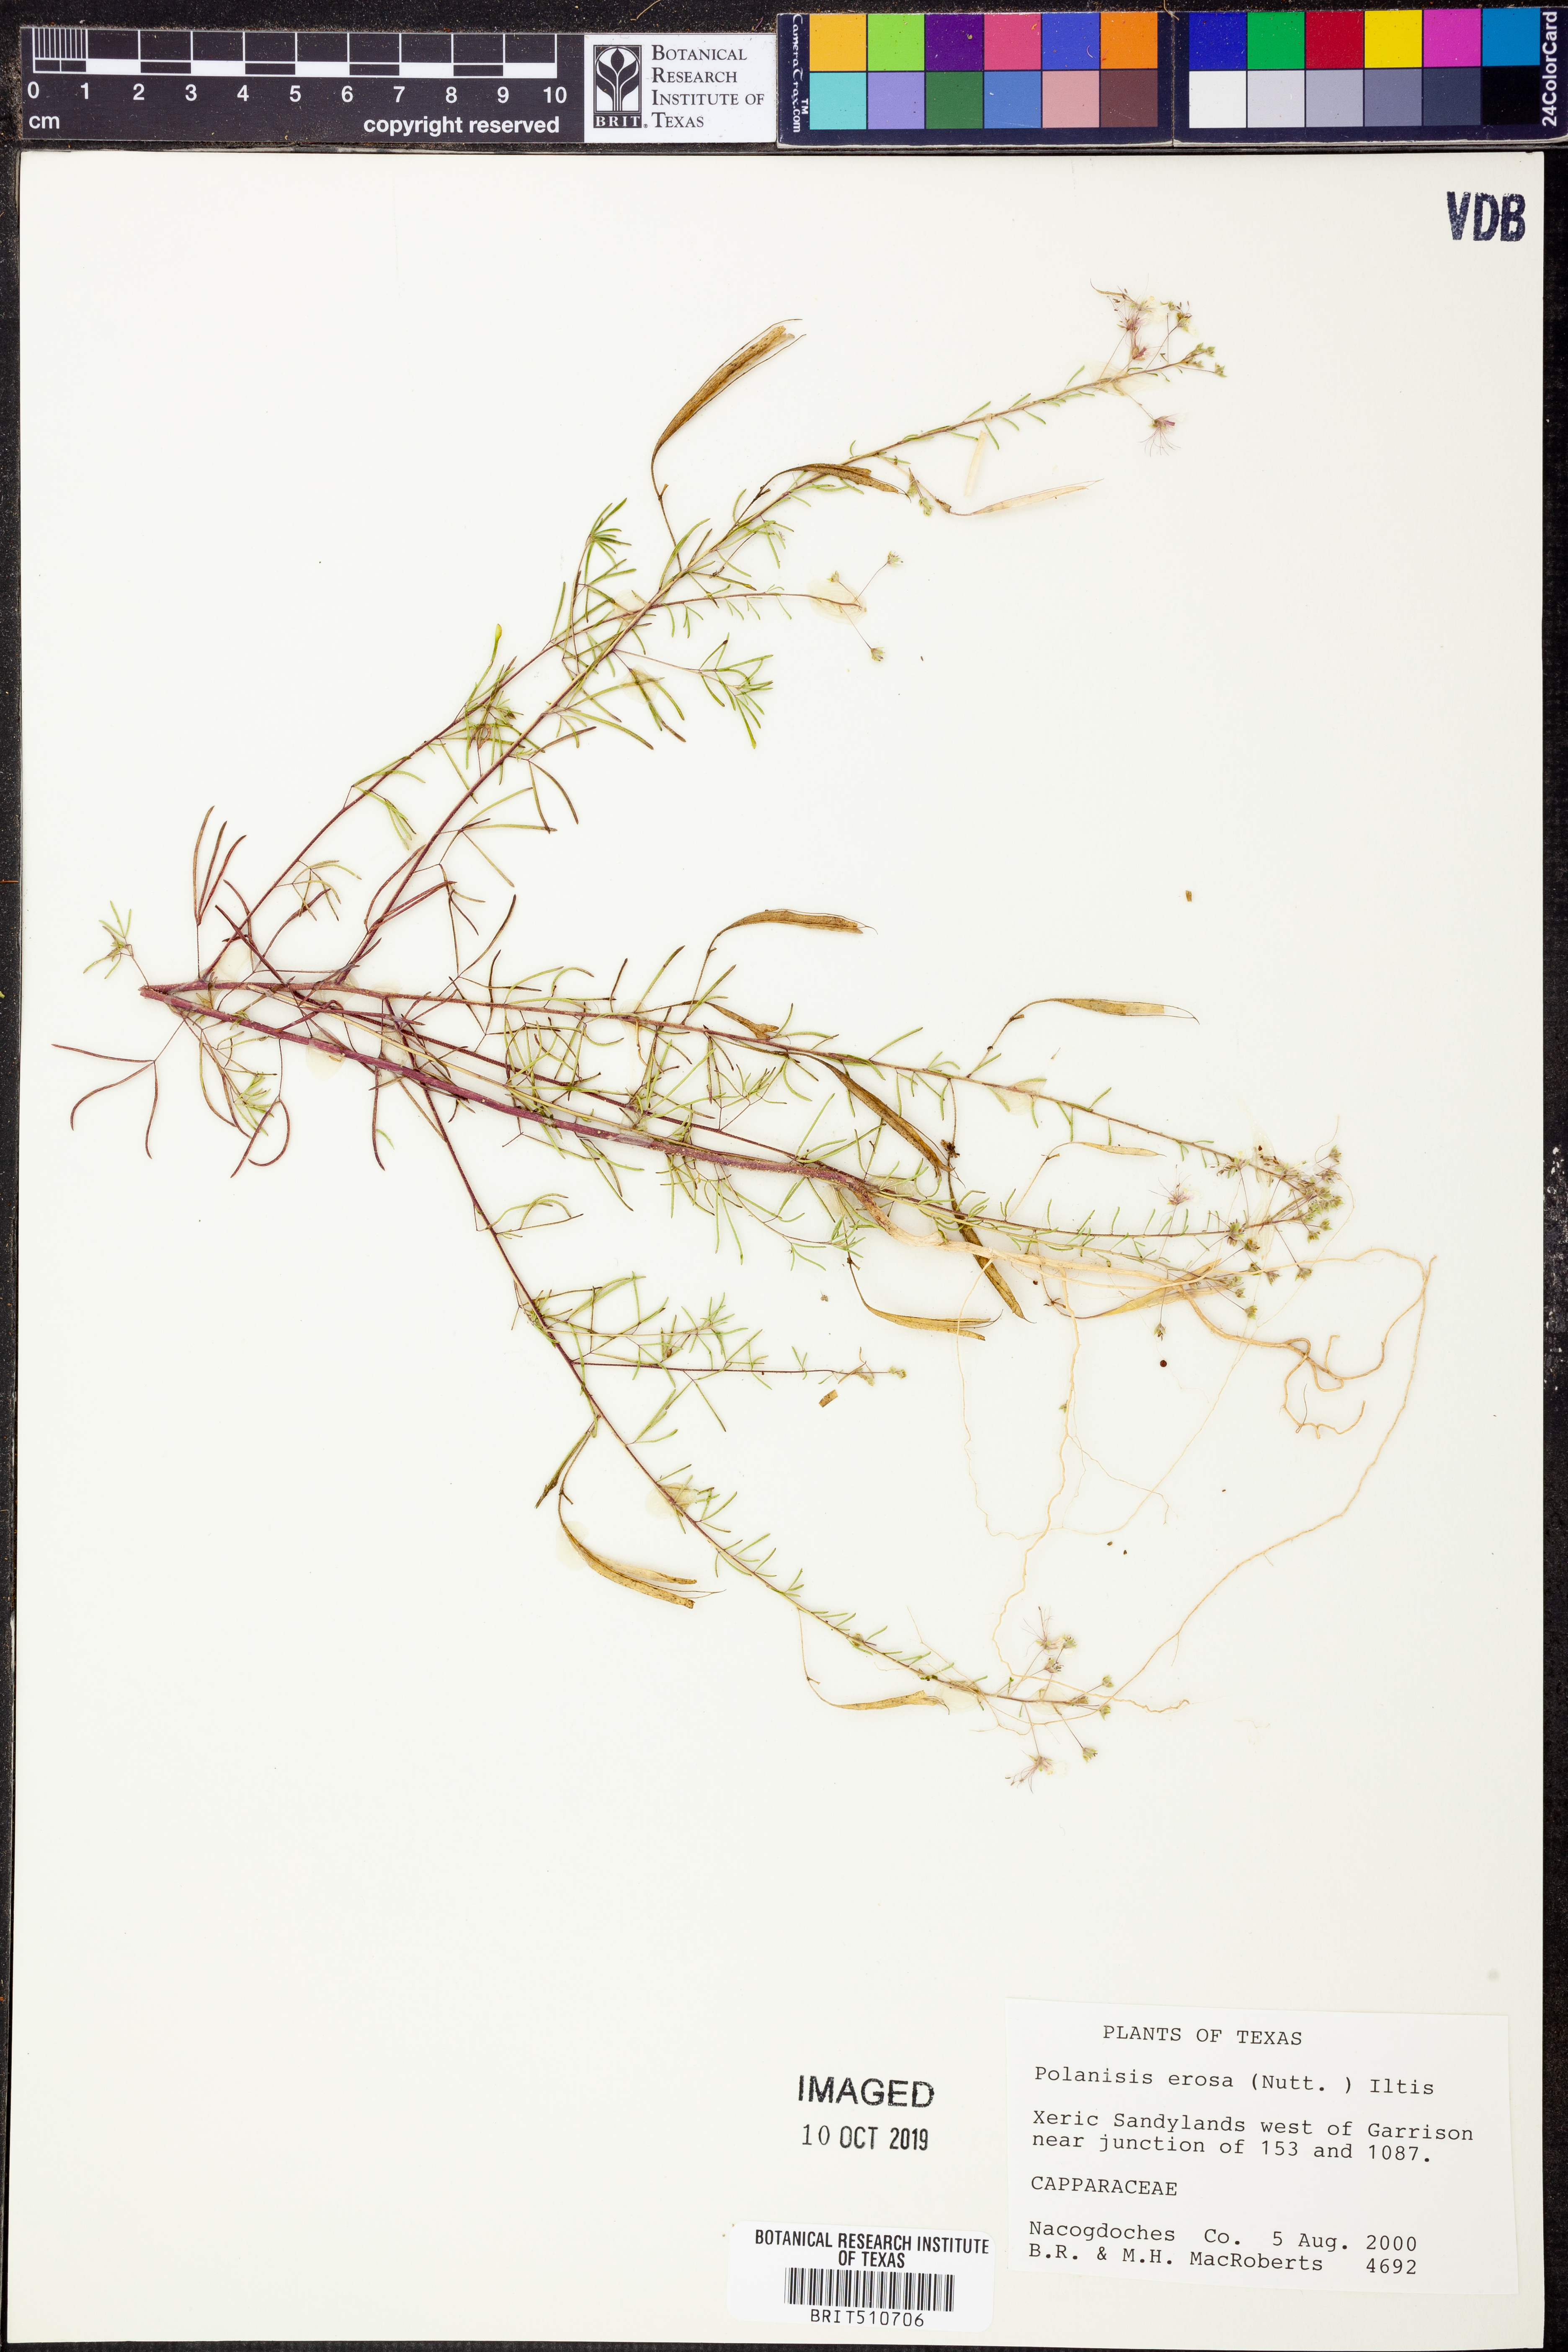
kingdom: Plantae
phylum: Tracheophyta
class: Magnoliopsida
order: Brassicales
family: Cleomaceae
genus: Polanisia
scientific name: Polanisia erosa
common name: Large clammyweed
